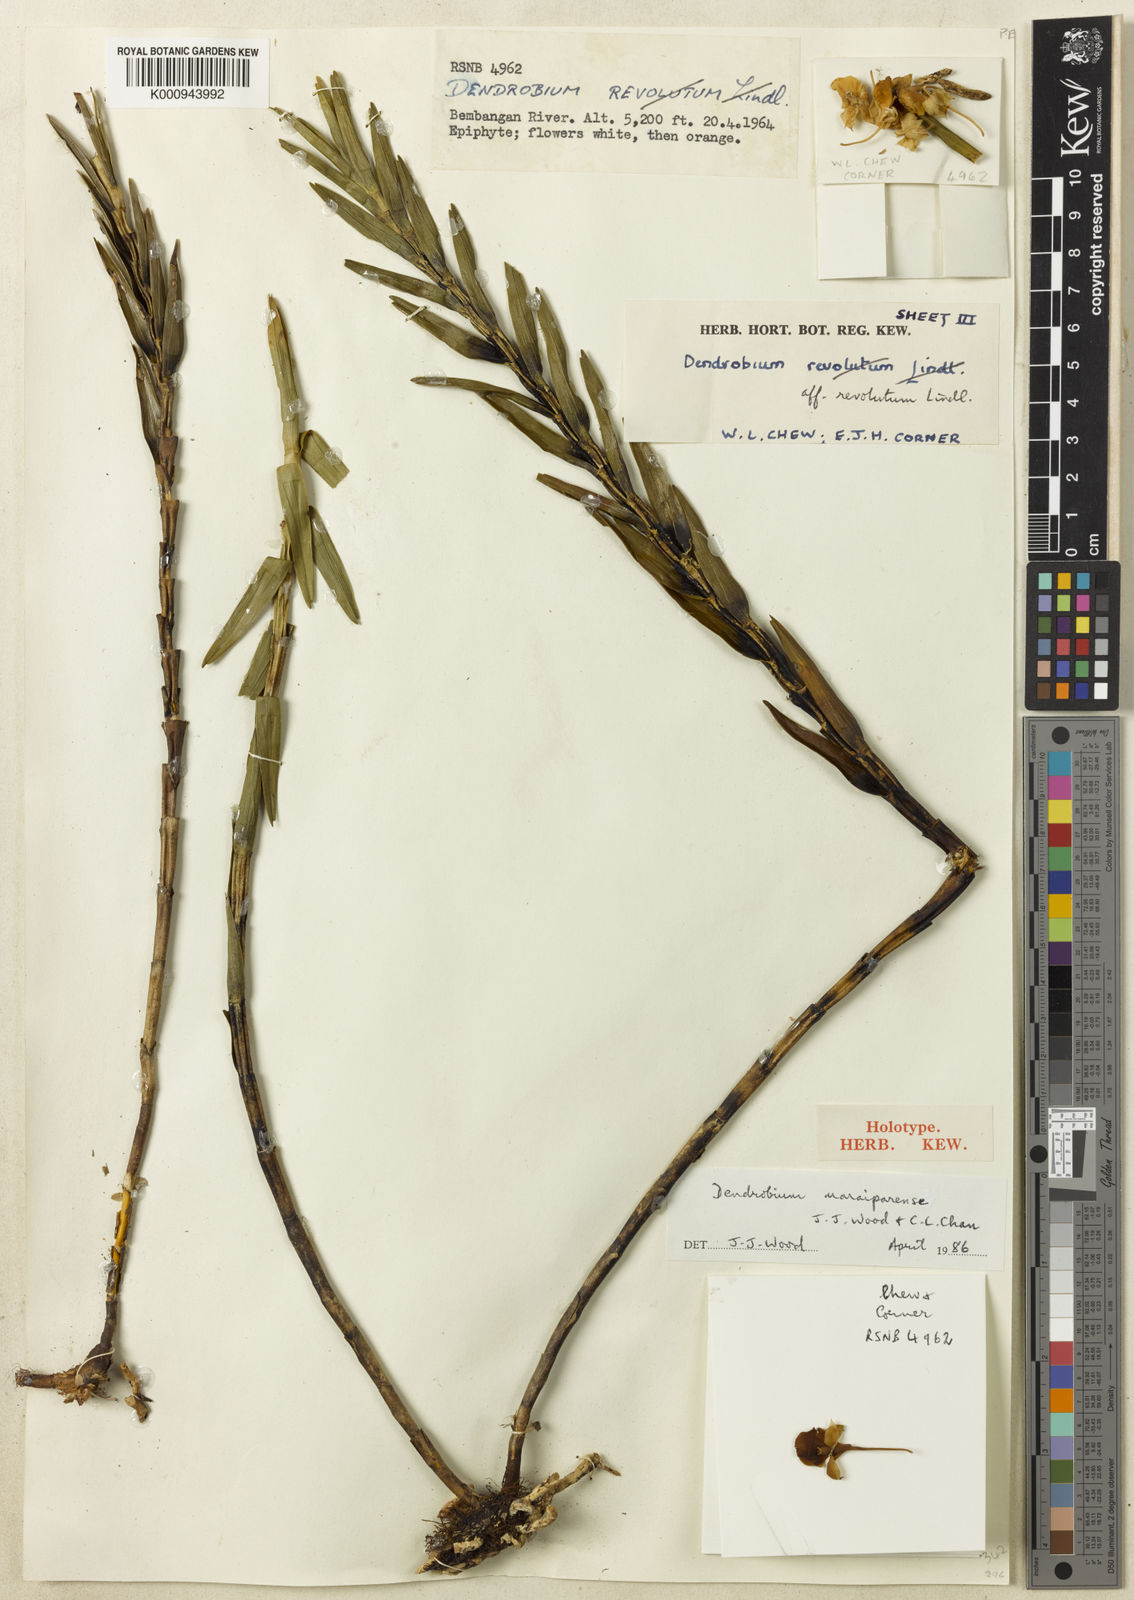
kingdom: Plantae
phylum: Tracheophyta
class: Liliopsida
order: Asparagales
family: Orchidaceae
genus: Dendrobium
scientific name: Dendrobium maraiparense
